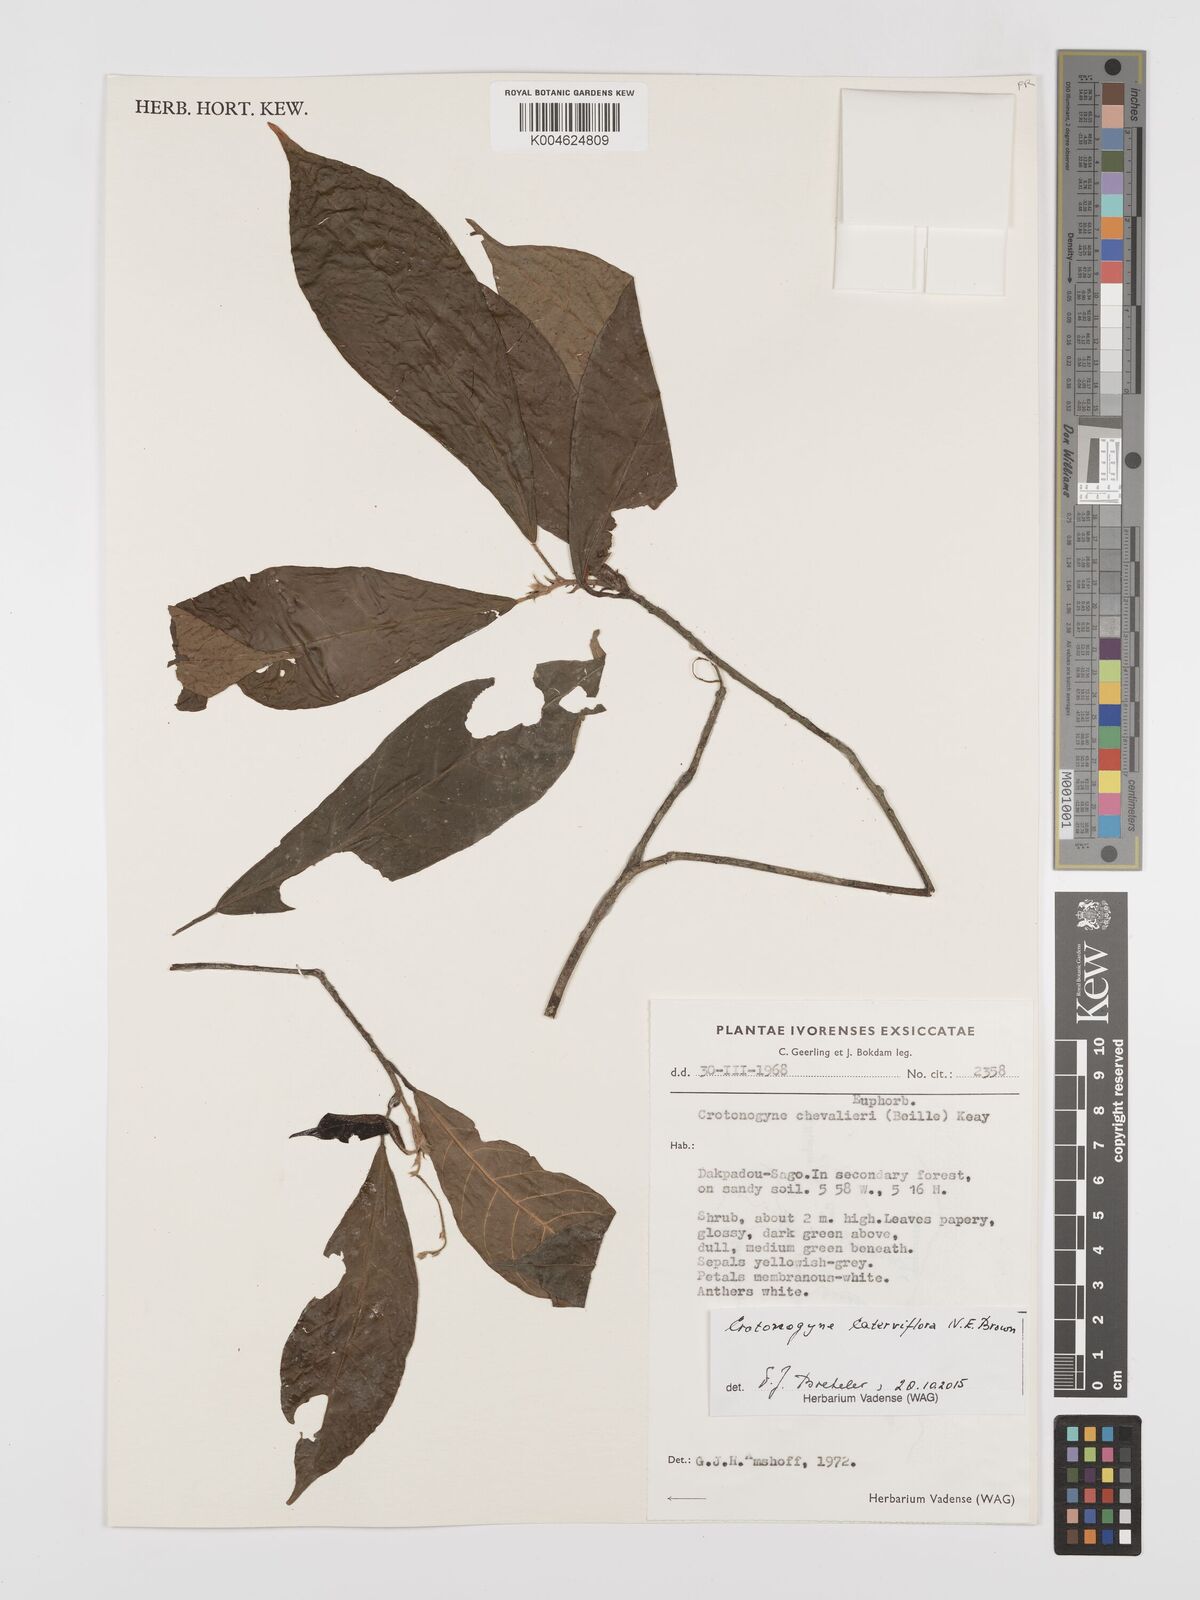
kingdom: Plantae
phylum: Tracheophyta
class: Magnoliopsida
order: Malpighiales
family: Euphorbiaceae
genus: Crotonogyne
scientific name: Crotonogyne caterviflora
